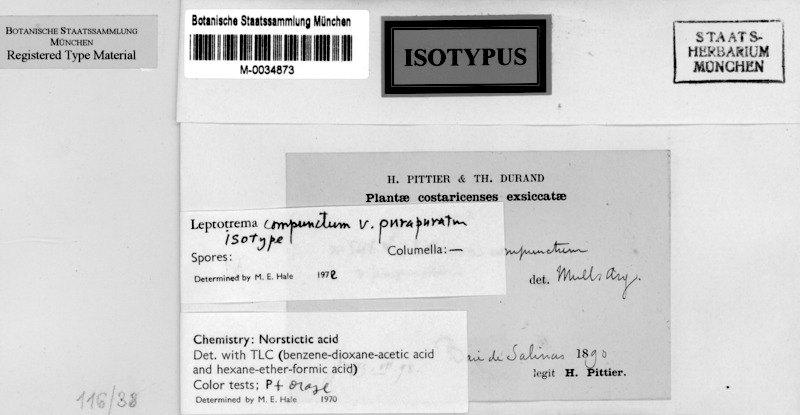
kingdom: Fungi
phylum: Ascomycota
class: Lecanoromycetes
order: Ostropales
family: Graphidaceae
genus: Leucodecton
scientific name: Leucodecton occultum
